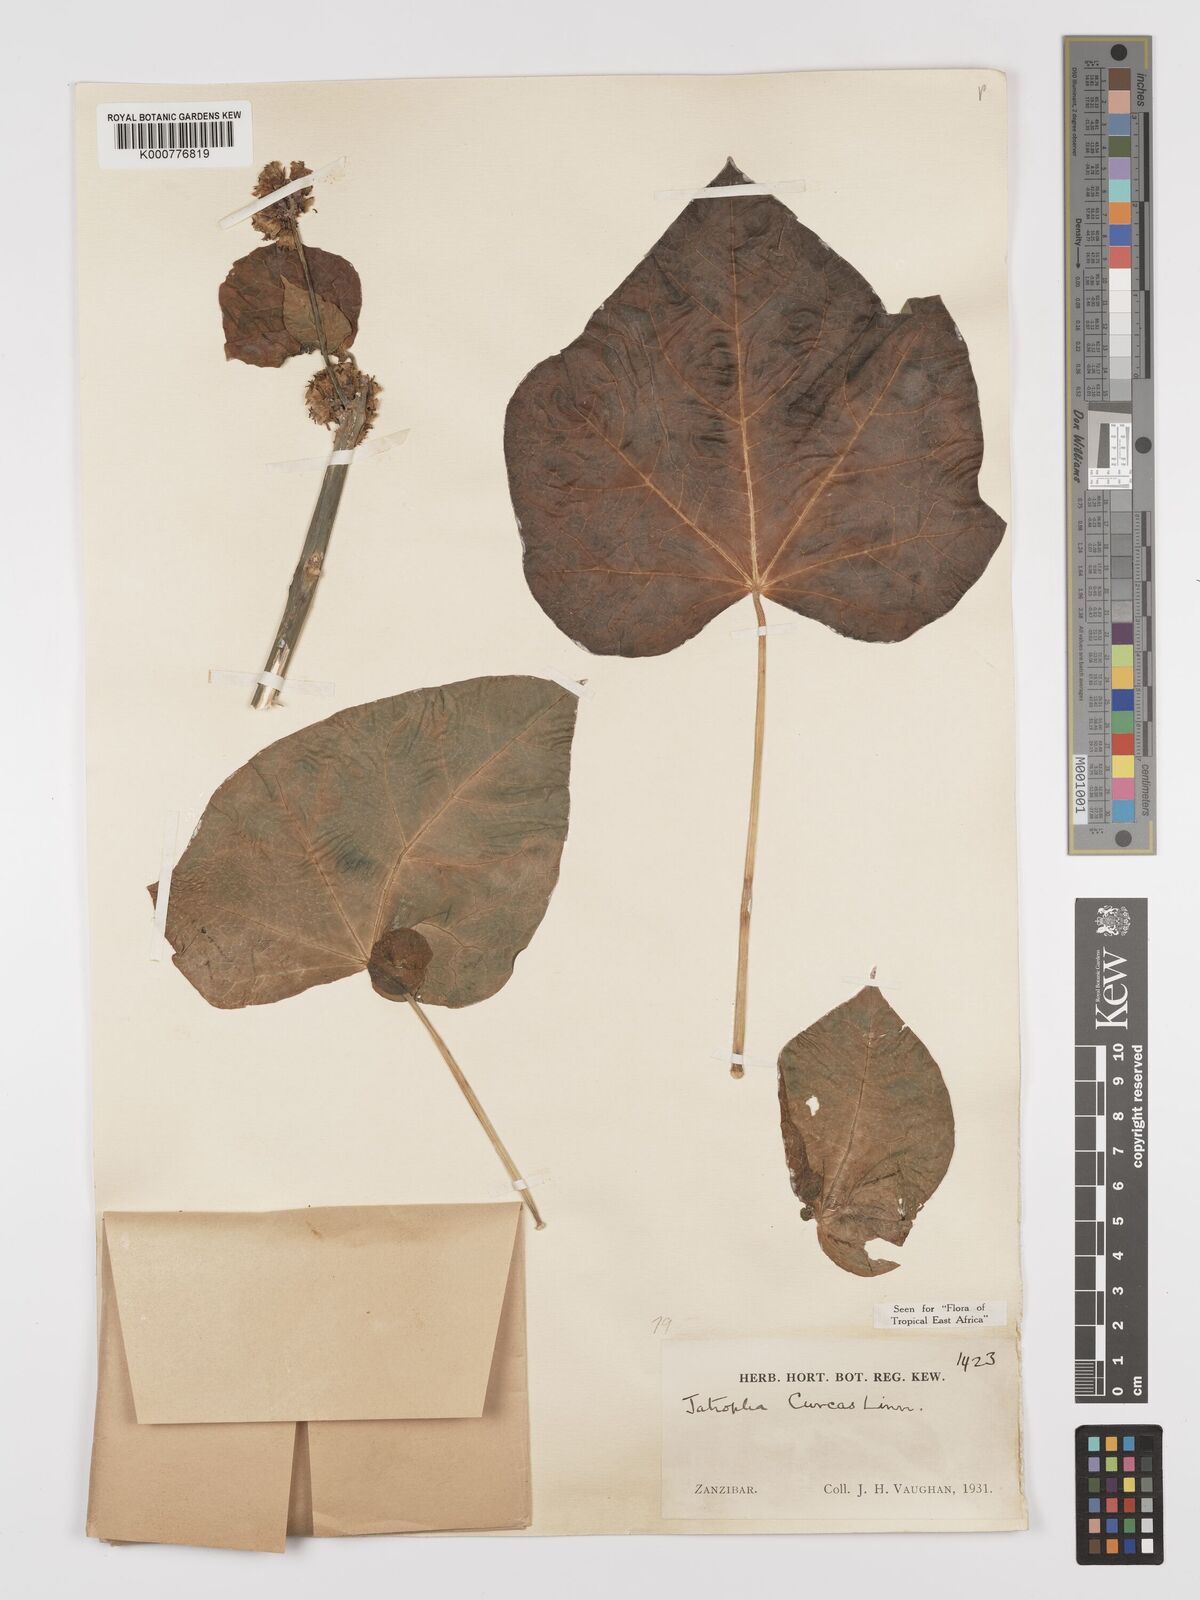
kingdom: Plantae
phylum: Tracheophyta
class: Magnoliopsida
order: Malpighiales
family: Euphorbiaceae
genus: Jatropha
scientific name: Jatropha curcas
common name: Barbados nut
